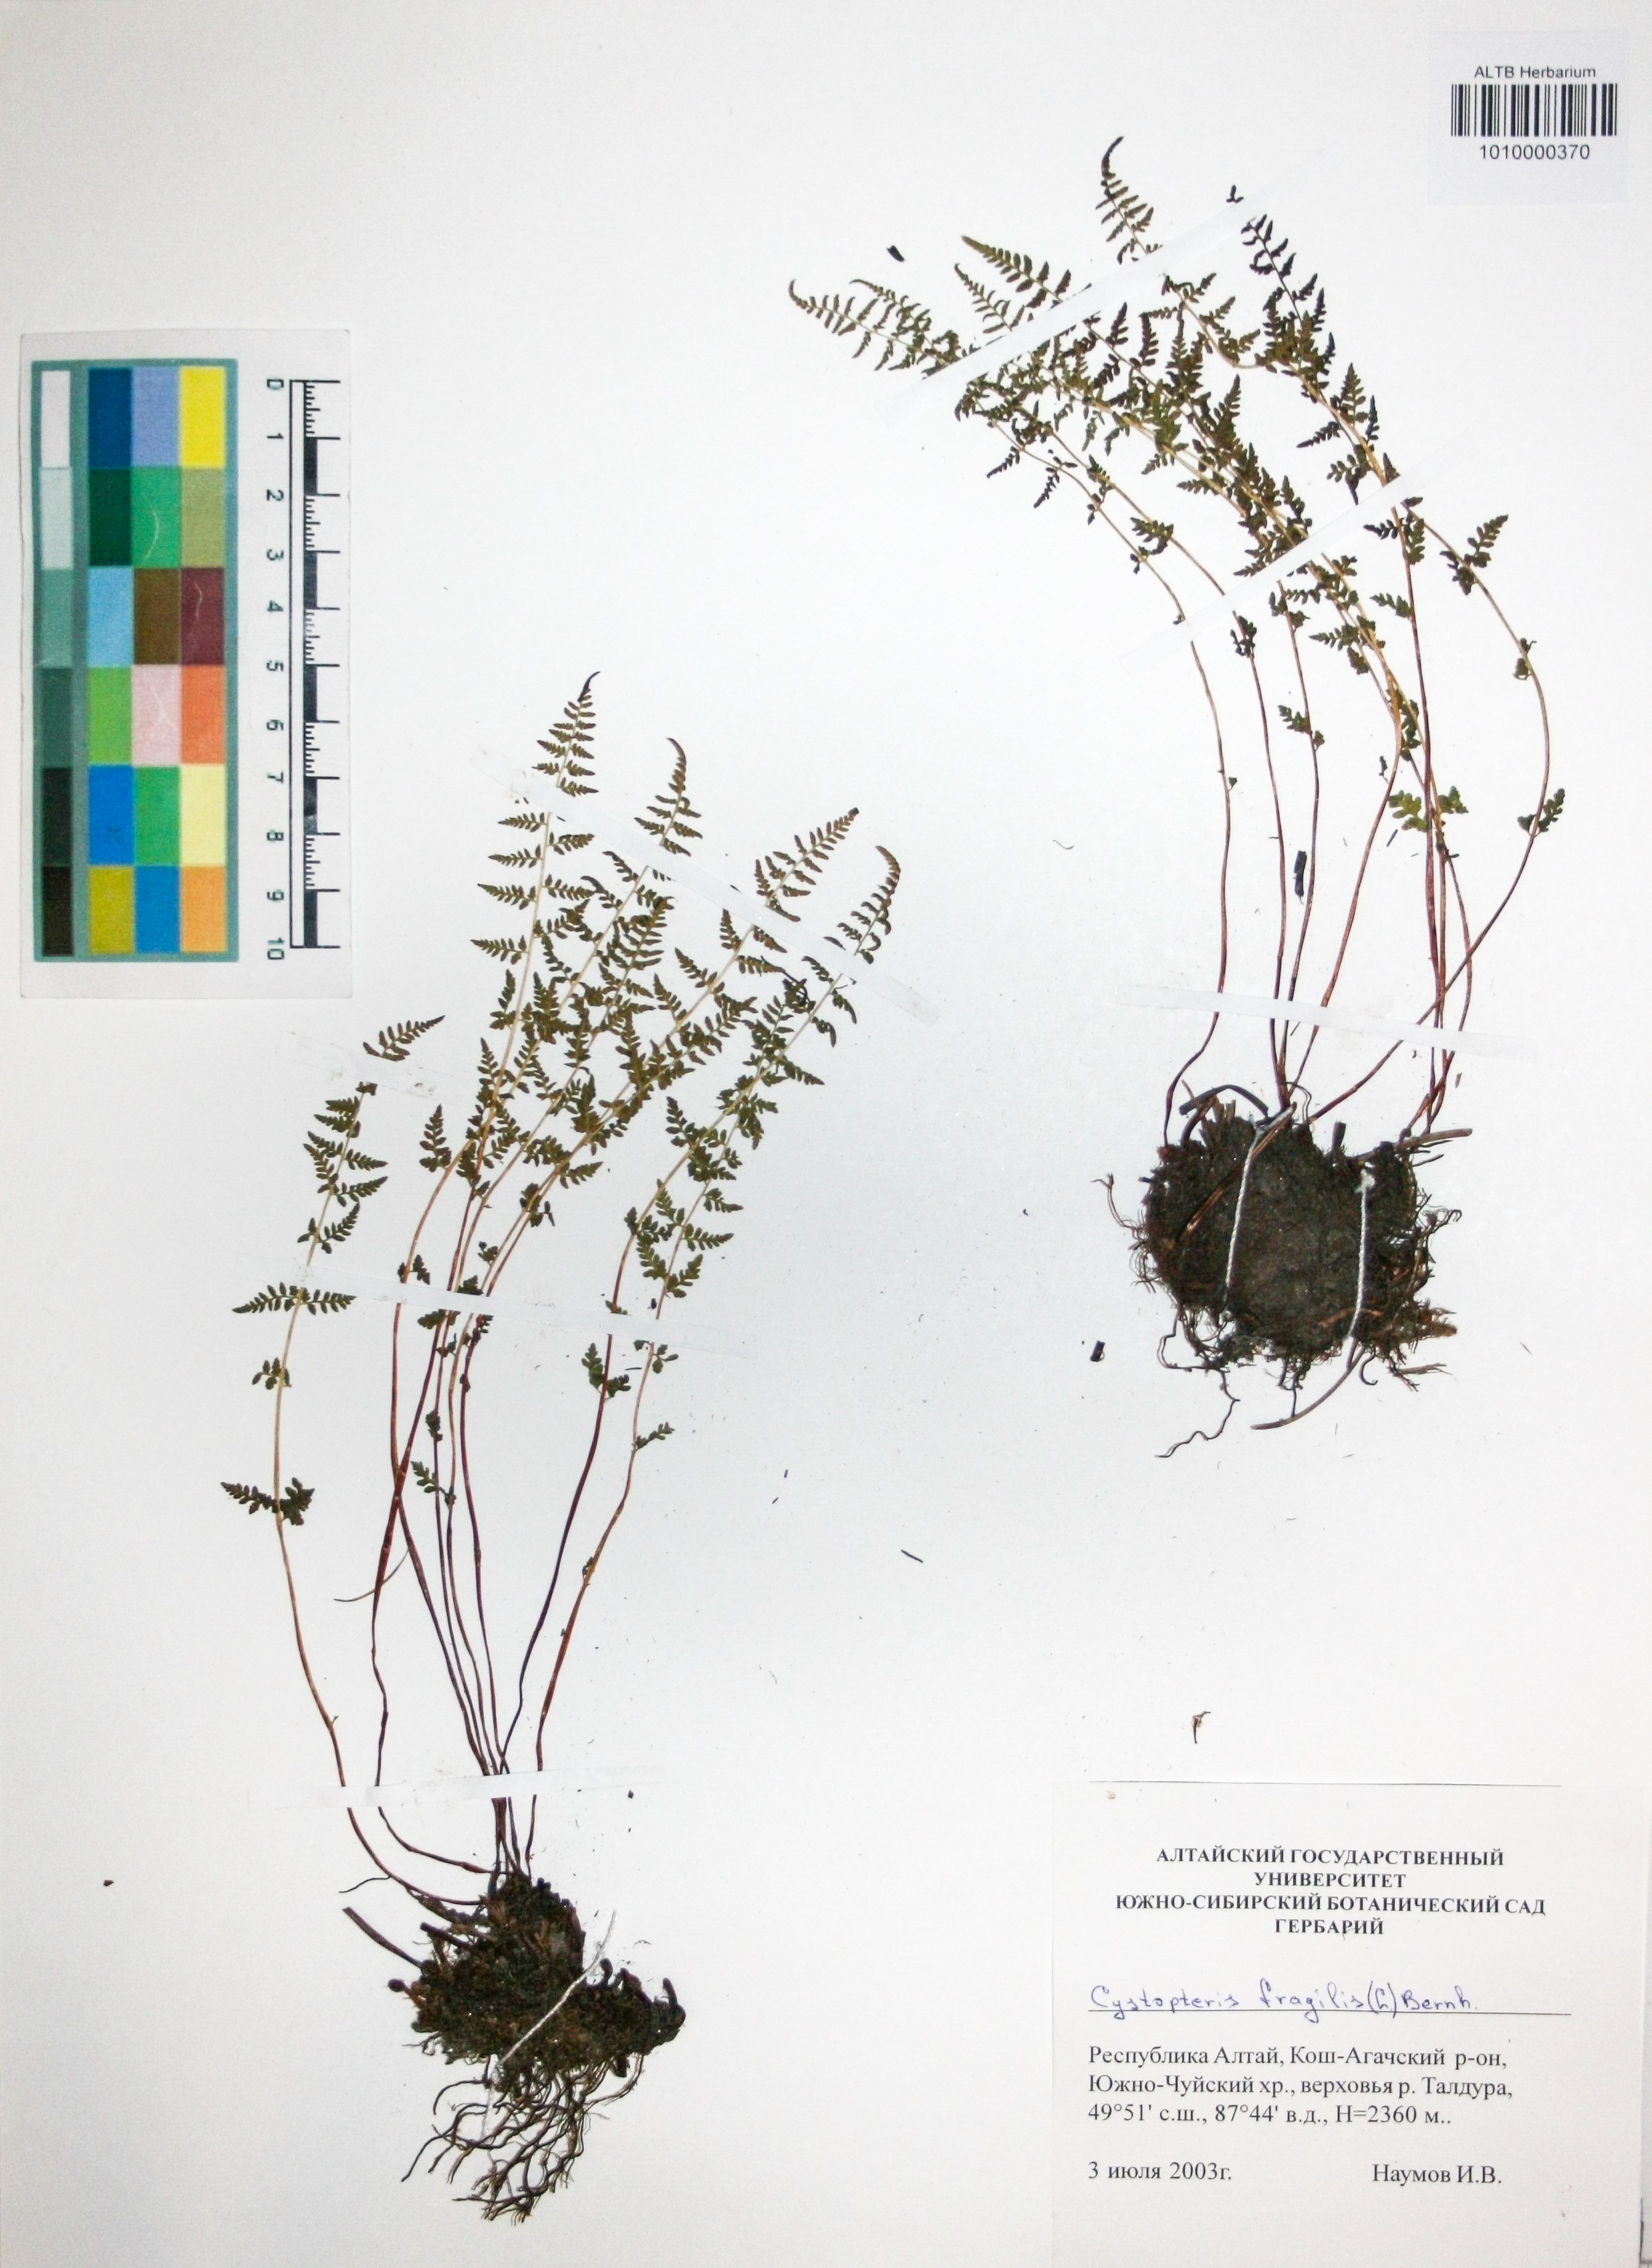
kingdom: Plantae
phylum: Tracheophyta
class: Polypodiopsida
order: Polypodiales
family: Cystopteridaceae
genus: Cystopteris
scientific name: Cystopteris fragilis
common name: Brittle bladder fern
